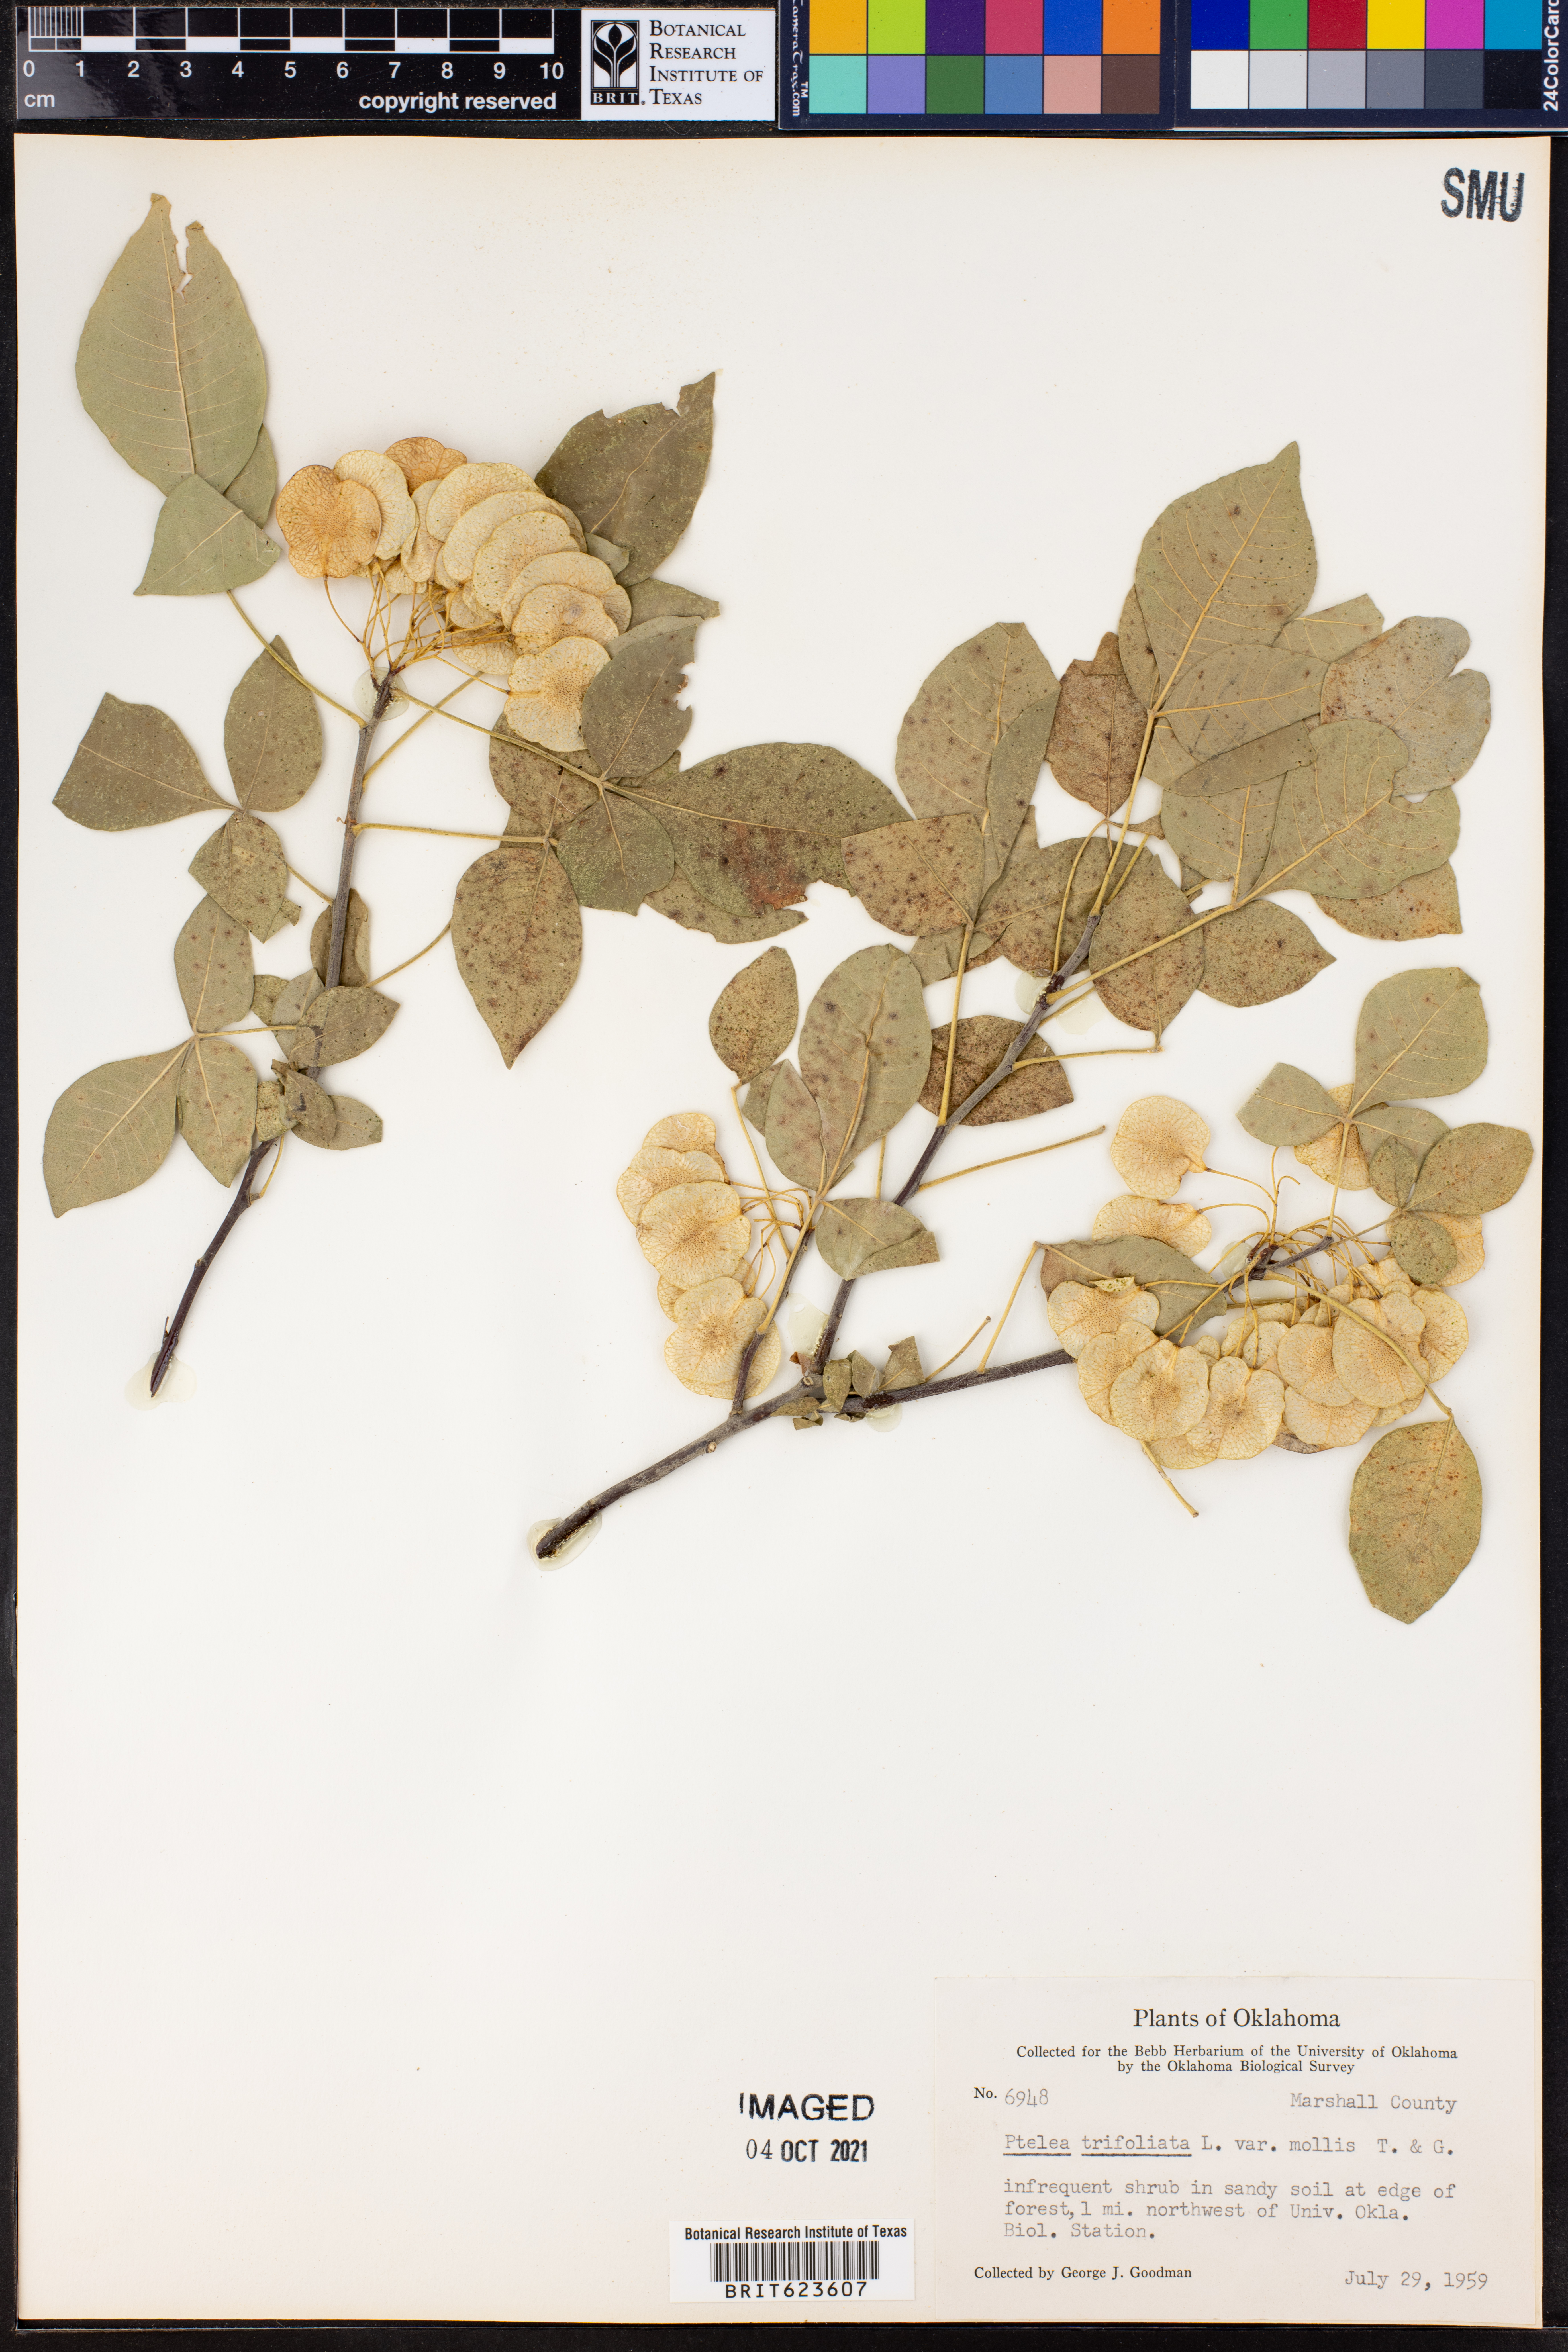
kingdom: Plantae
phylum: Tracheophyta
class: Magnoliopsida
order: Sapindales
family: Rutaceae
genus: Ptelea
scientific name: Ptelea trifoliata
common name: Common hop-tree
